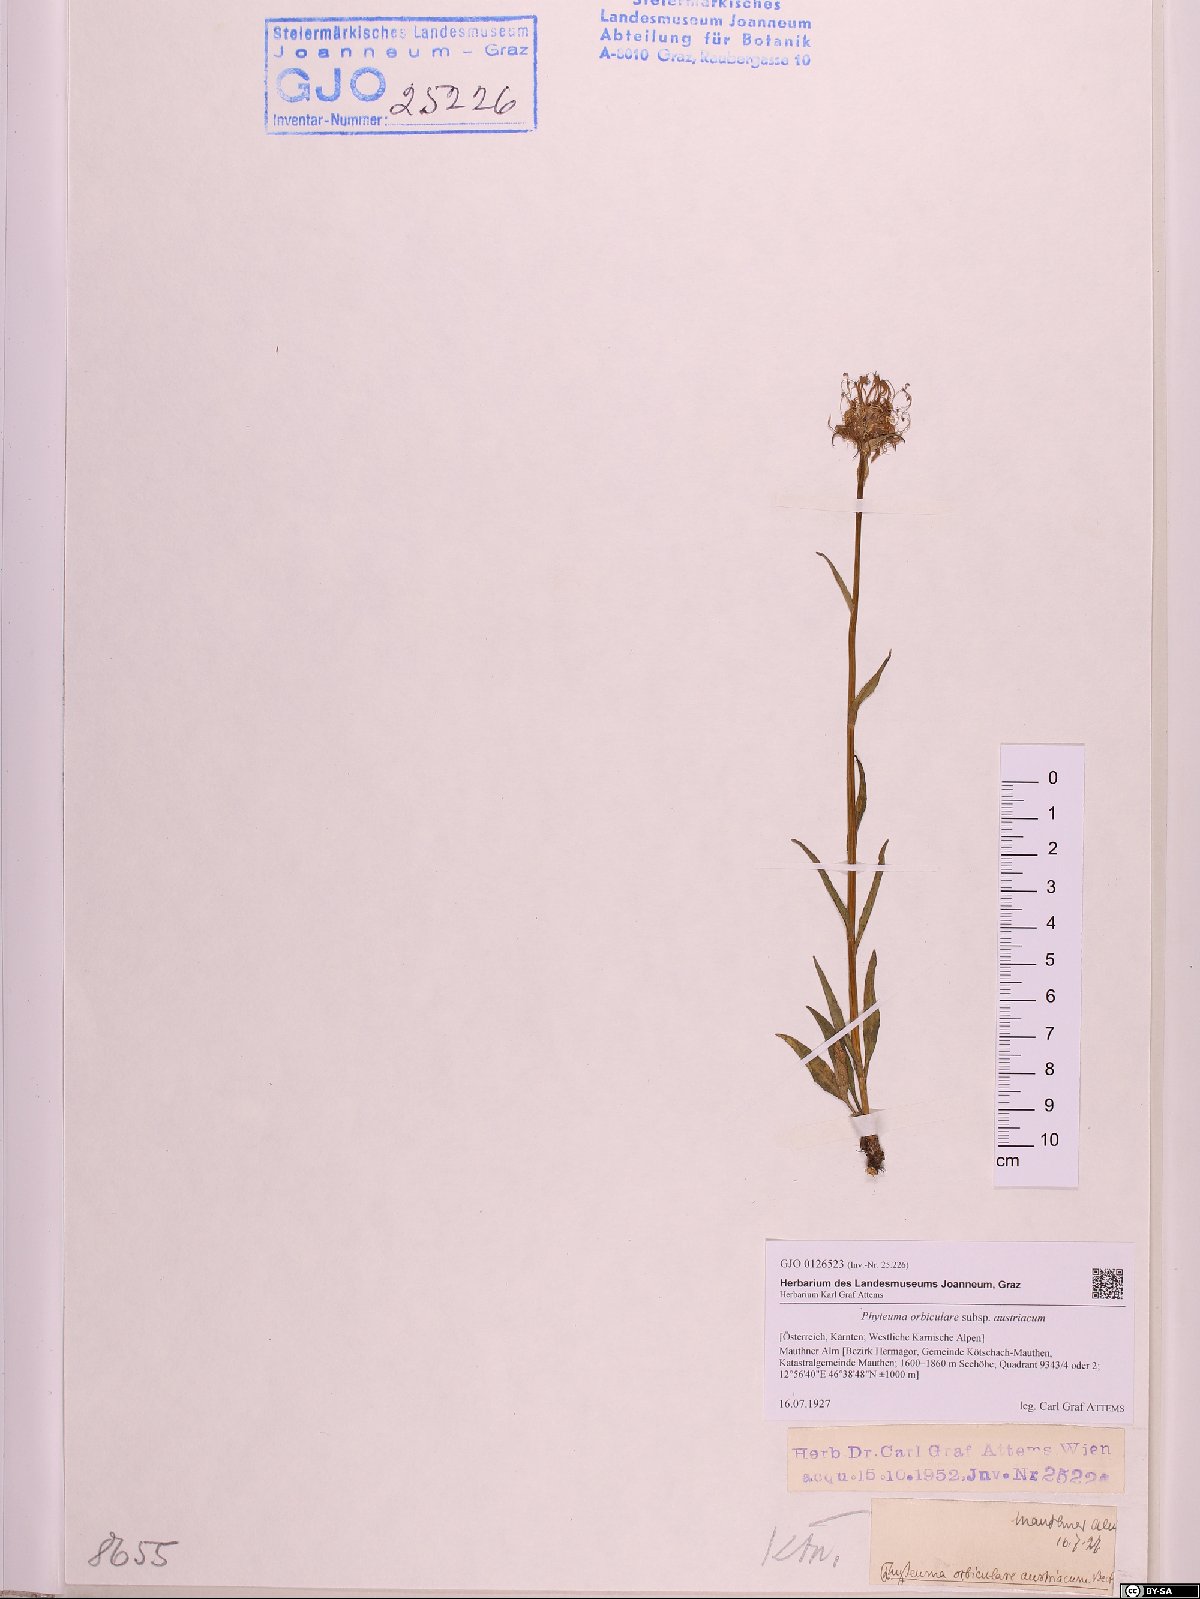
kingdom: Plantae
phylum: Tracheophyta
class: Magnoliopsida
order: Asterales
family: Campanulaceae
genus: Phyteuma
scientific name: Phyteuma orbiculare
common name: Round-headed rampion
